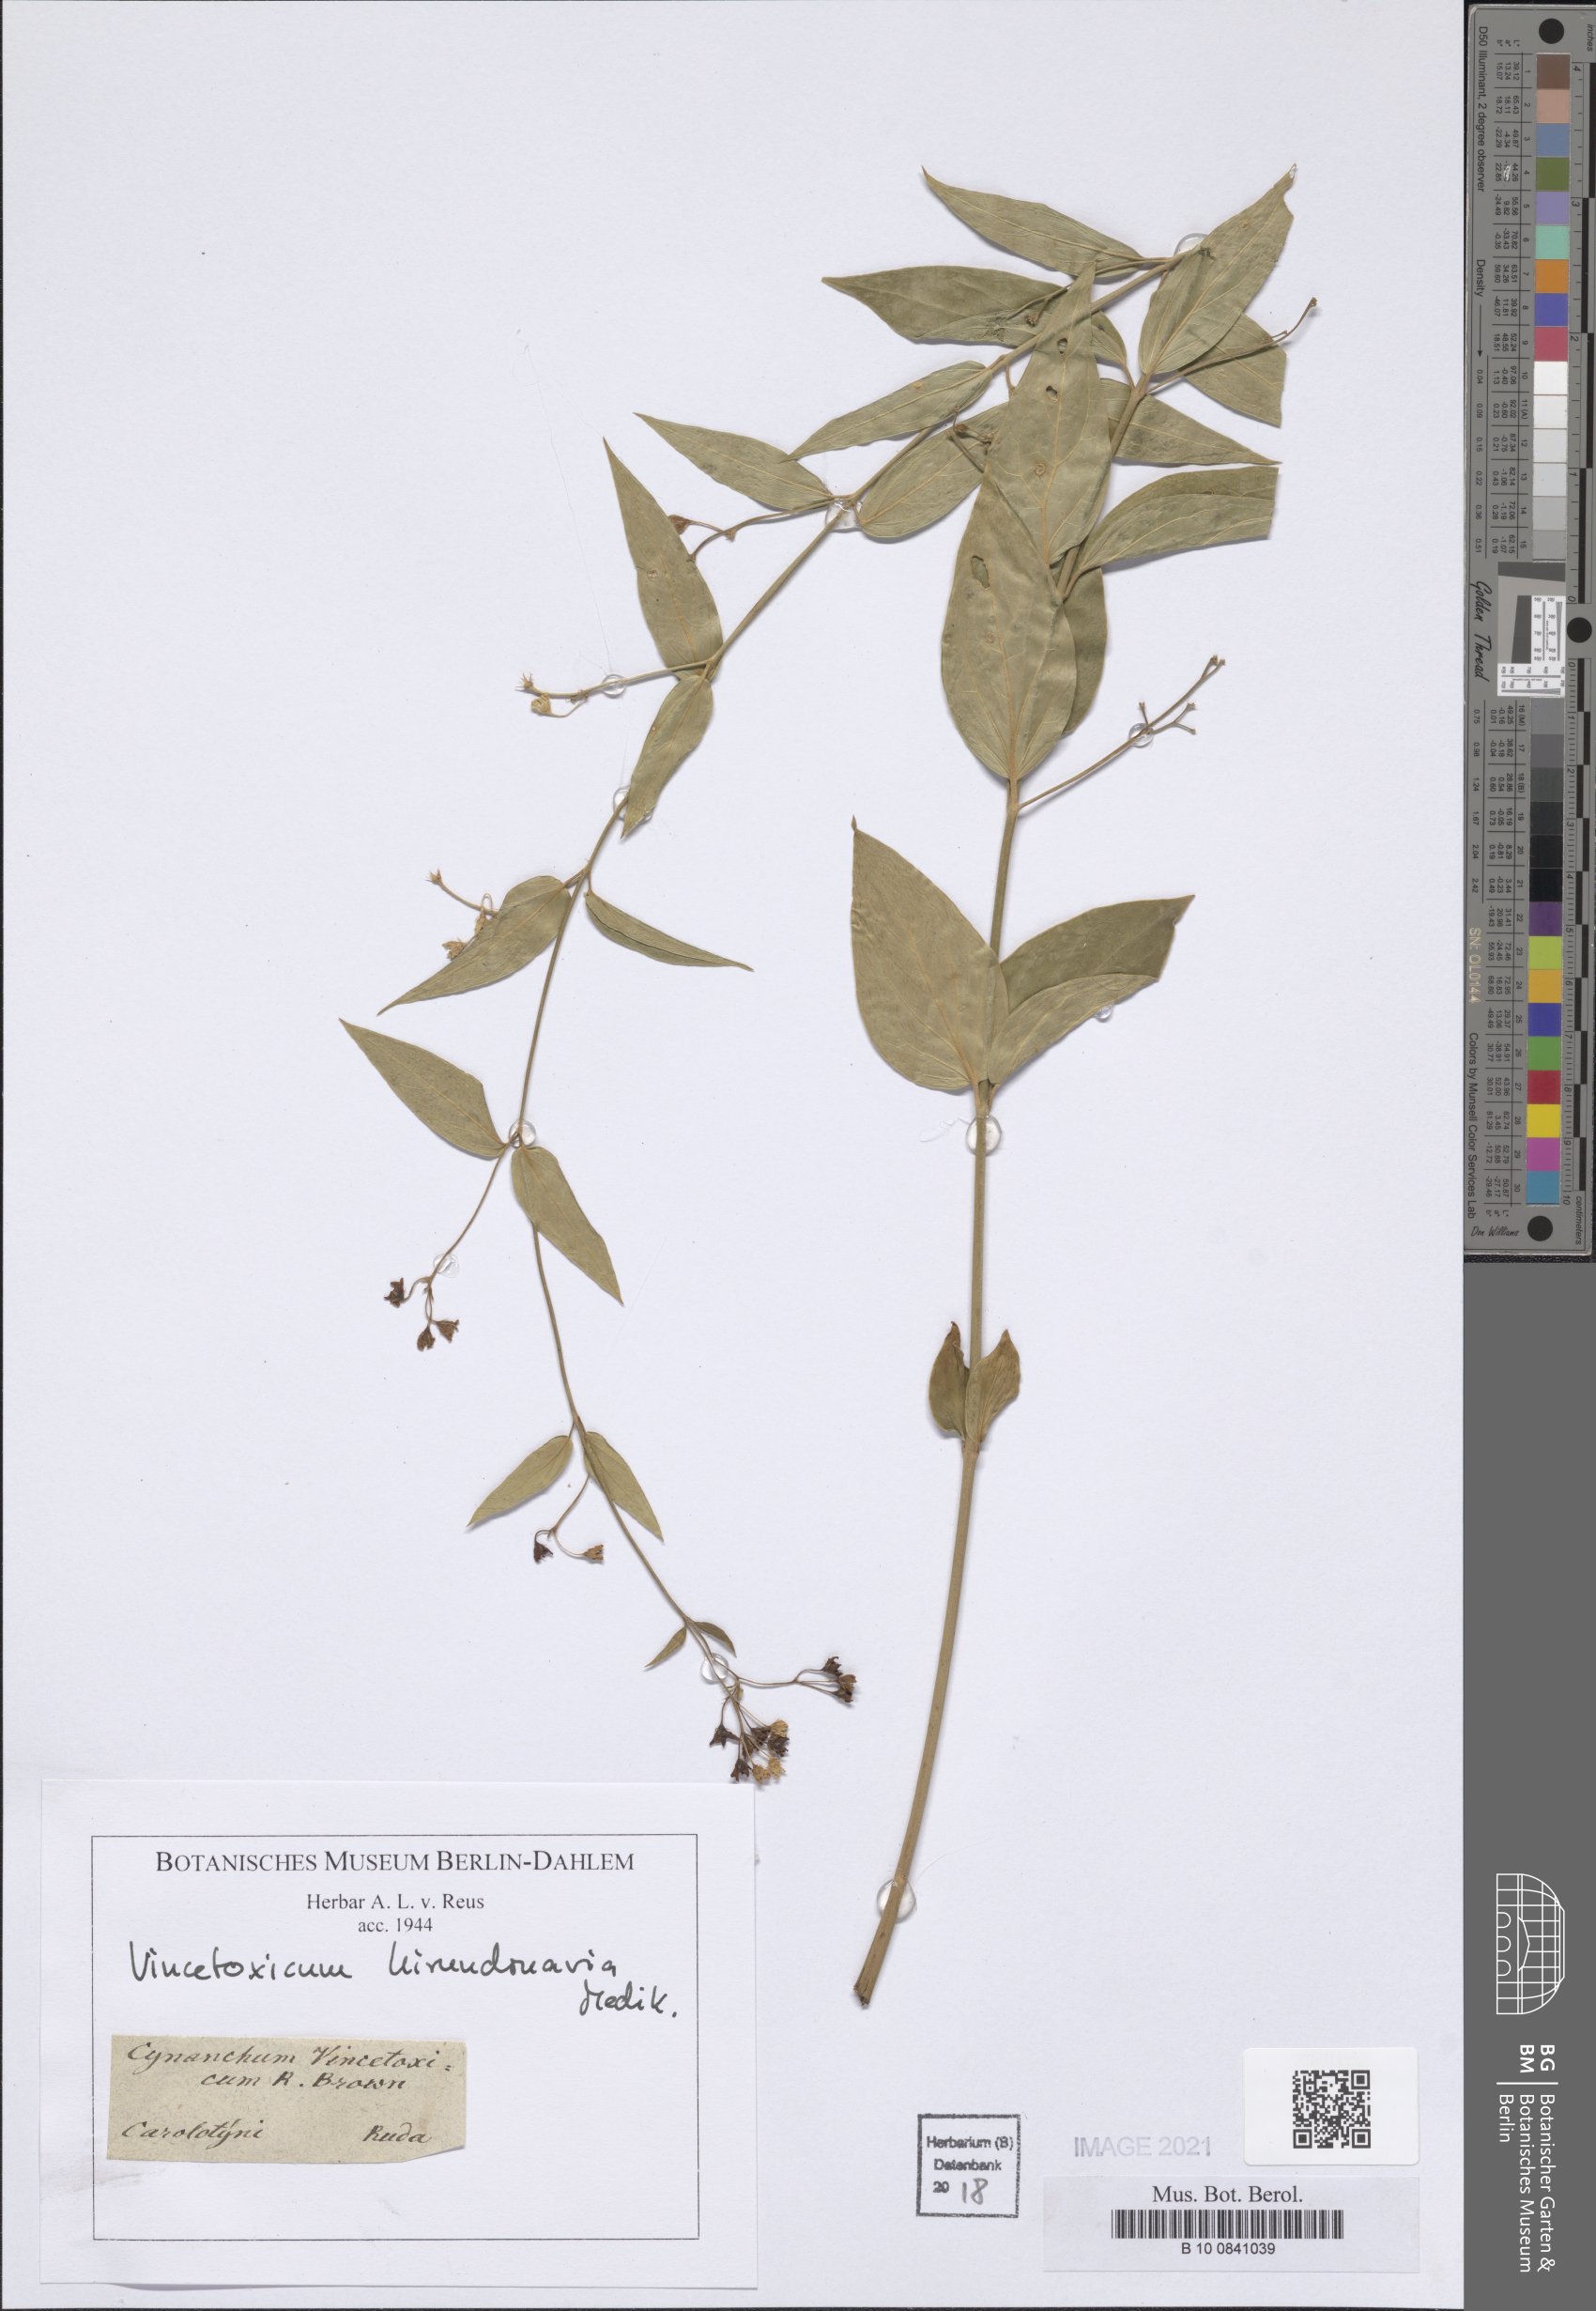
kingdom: Plantae
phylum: Tracheophyta
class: Magnoliopsida
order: Gentianales
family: Apocynaceae
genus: Vincetoxicum
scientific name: Vincetoxicum hirundinaria
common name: White swallowwort
